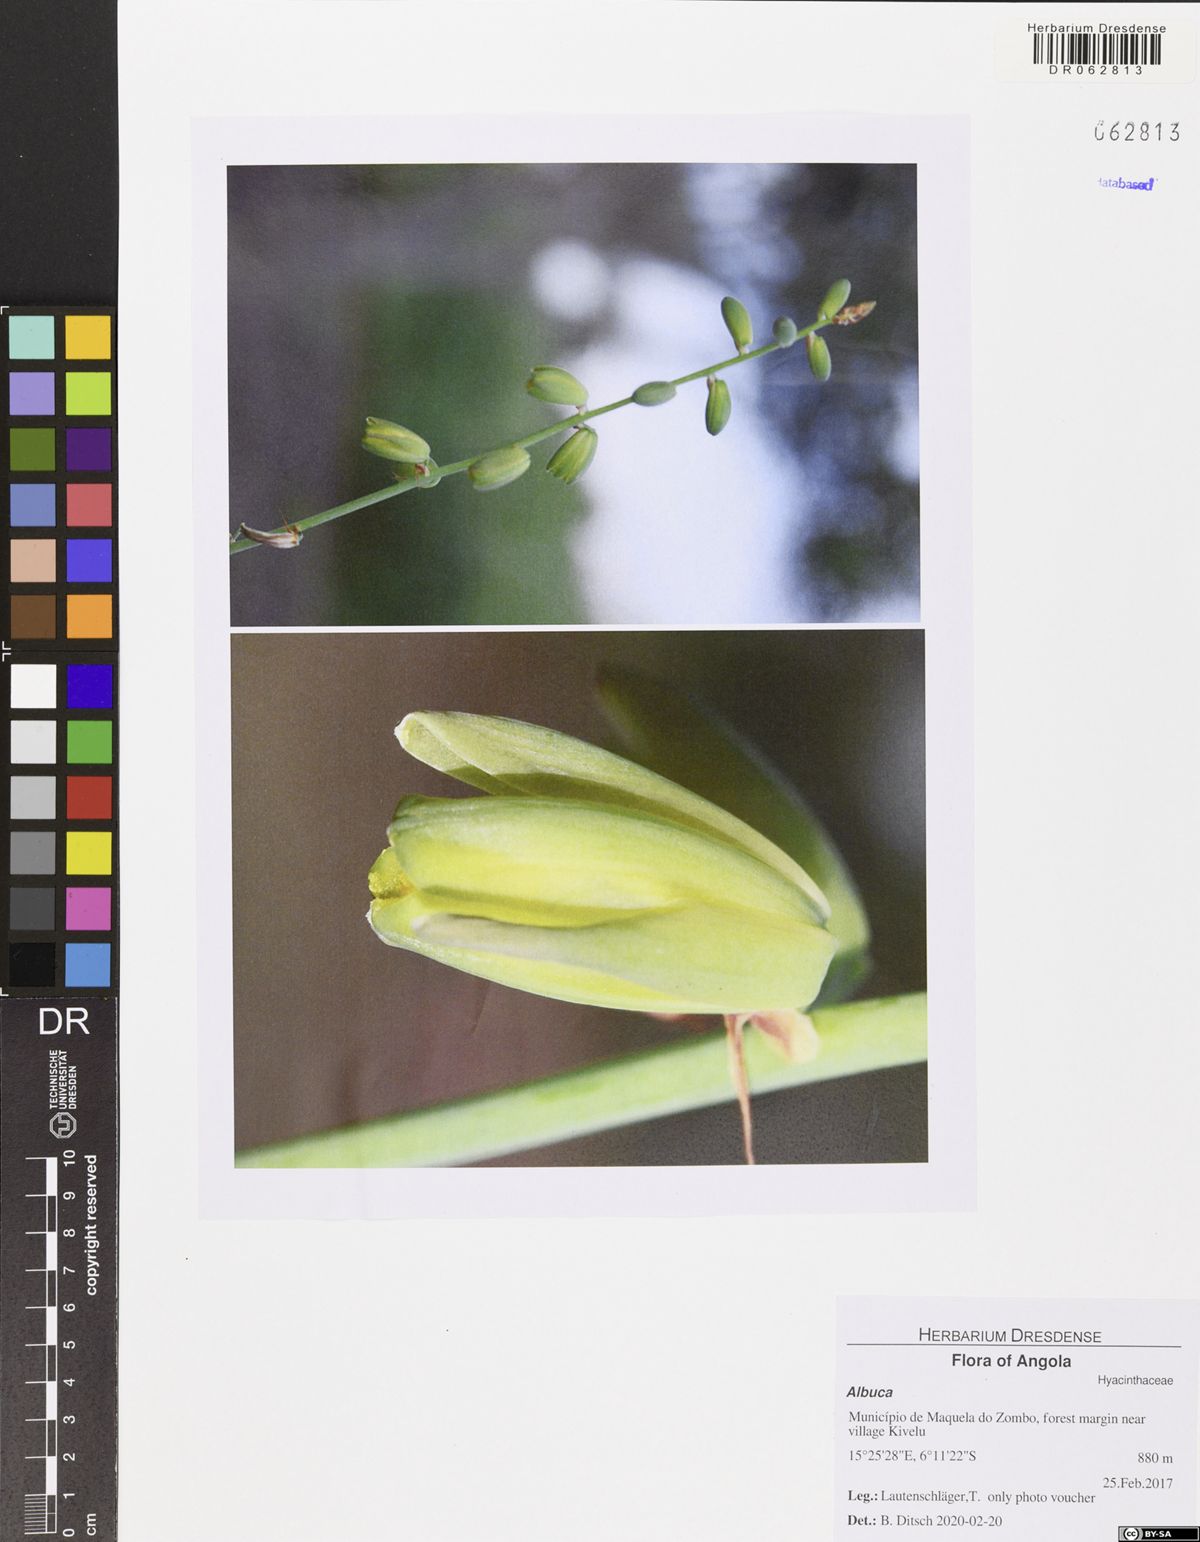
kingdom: Plantae
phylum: Tracheophyta
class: Liliopsida
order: Asparagales
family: Asparagaceae
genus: Albuca
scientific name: Albuca abyssinica
